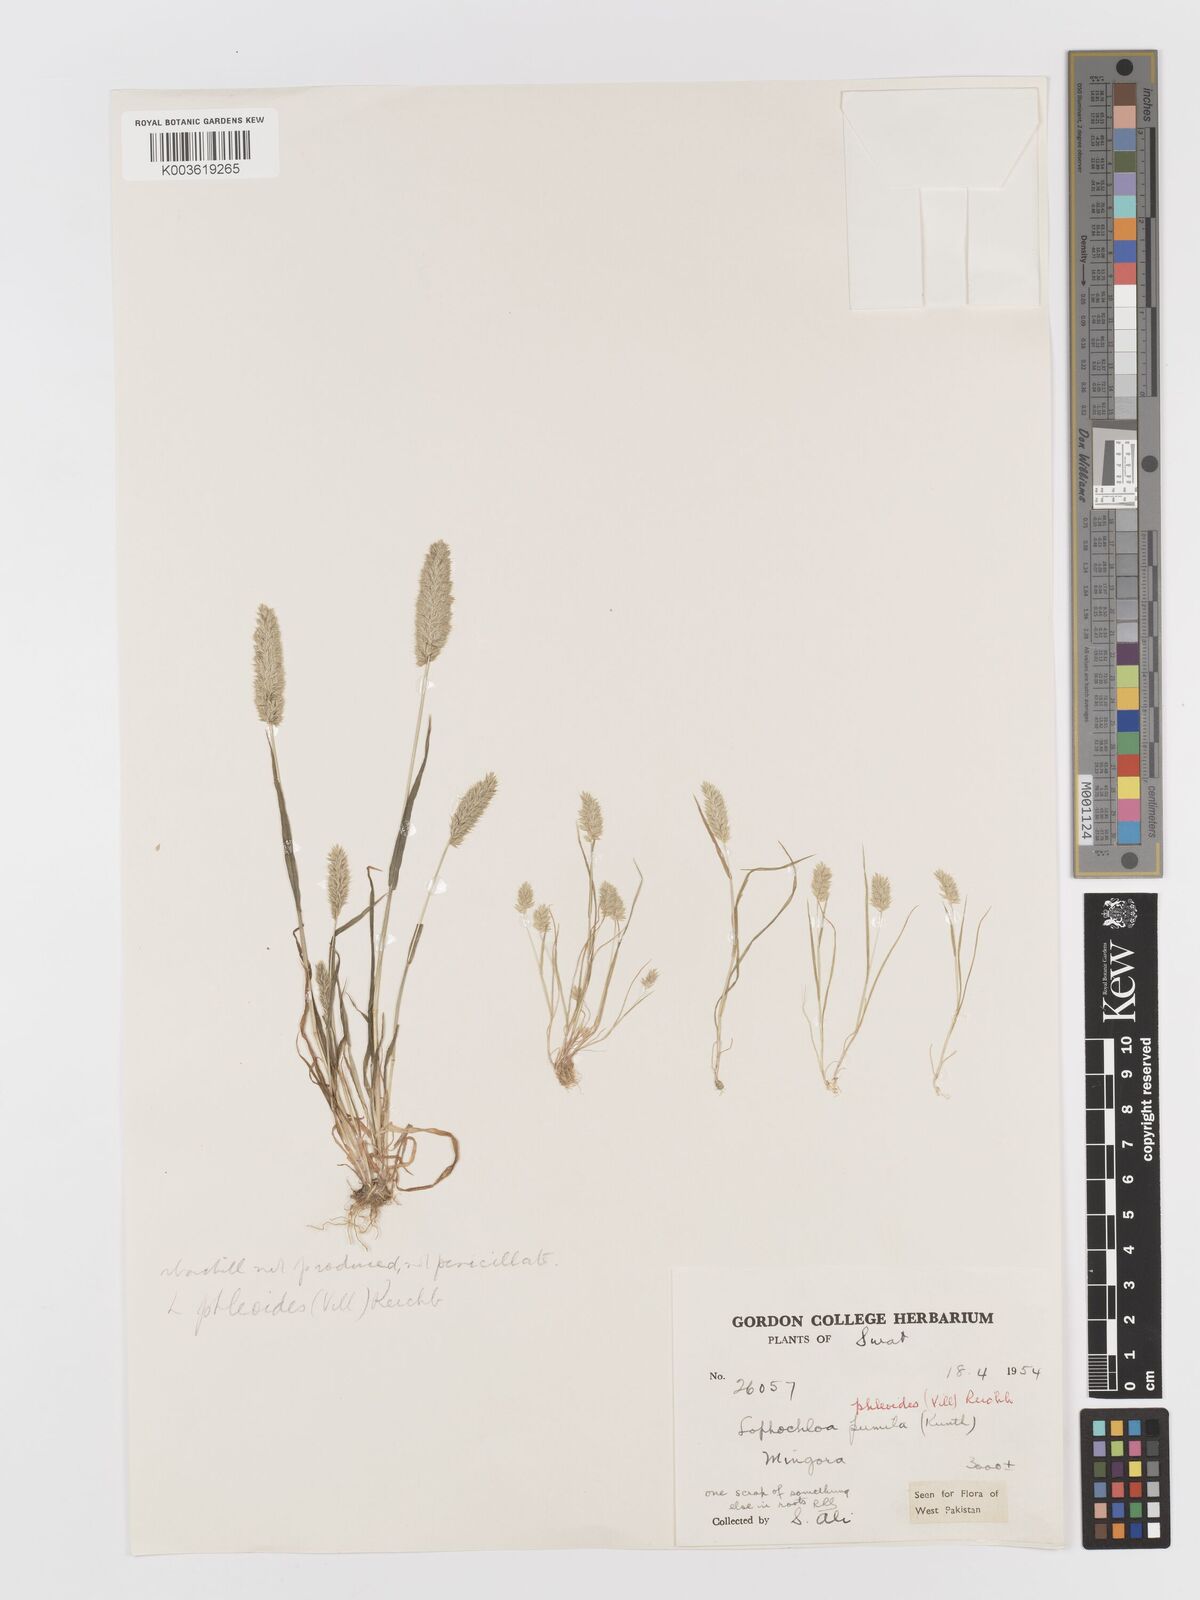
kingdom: Plantae
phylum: Tracheophyta
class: Liliopsida
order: Poales
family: Poaceae
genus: Rostraria
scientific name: Rostraria cristata
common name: Mediterranean hair-grass
